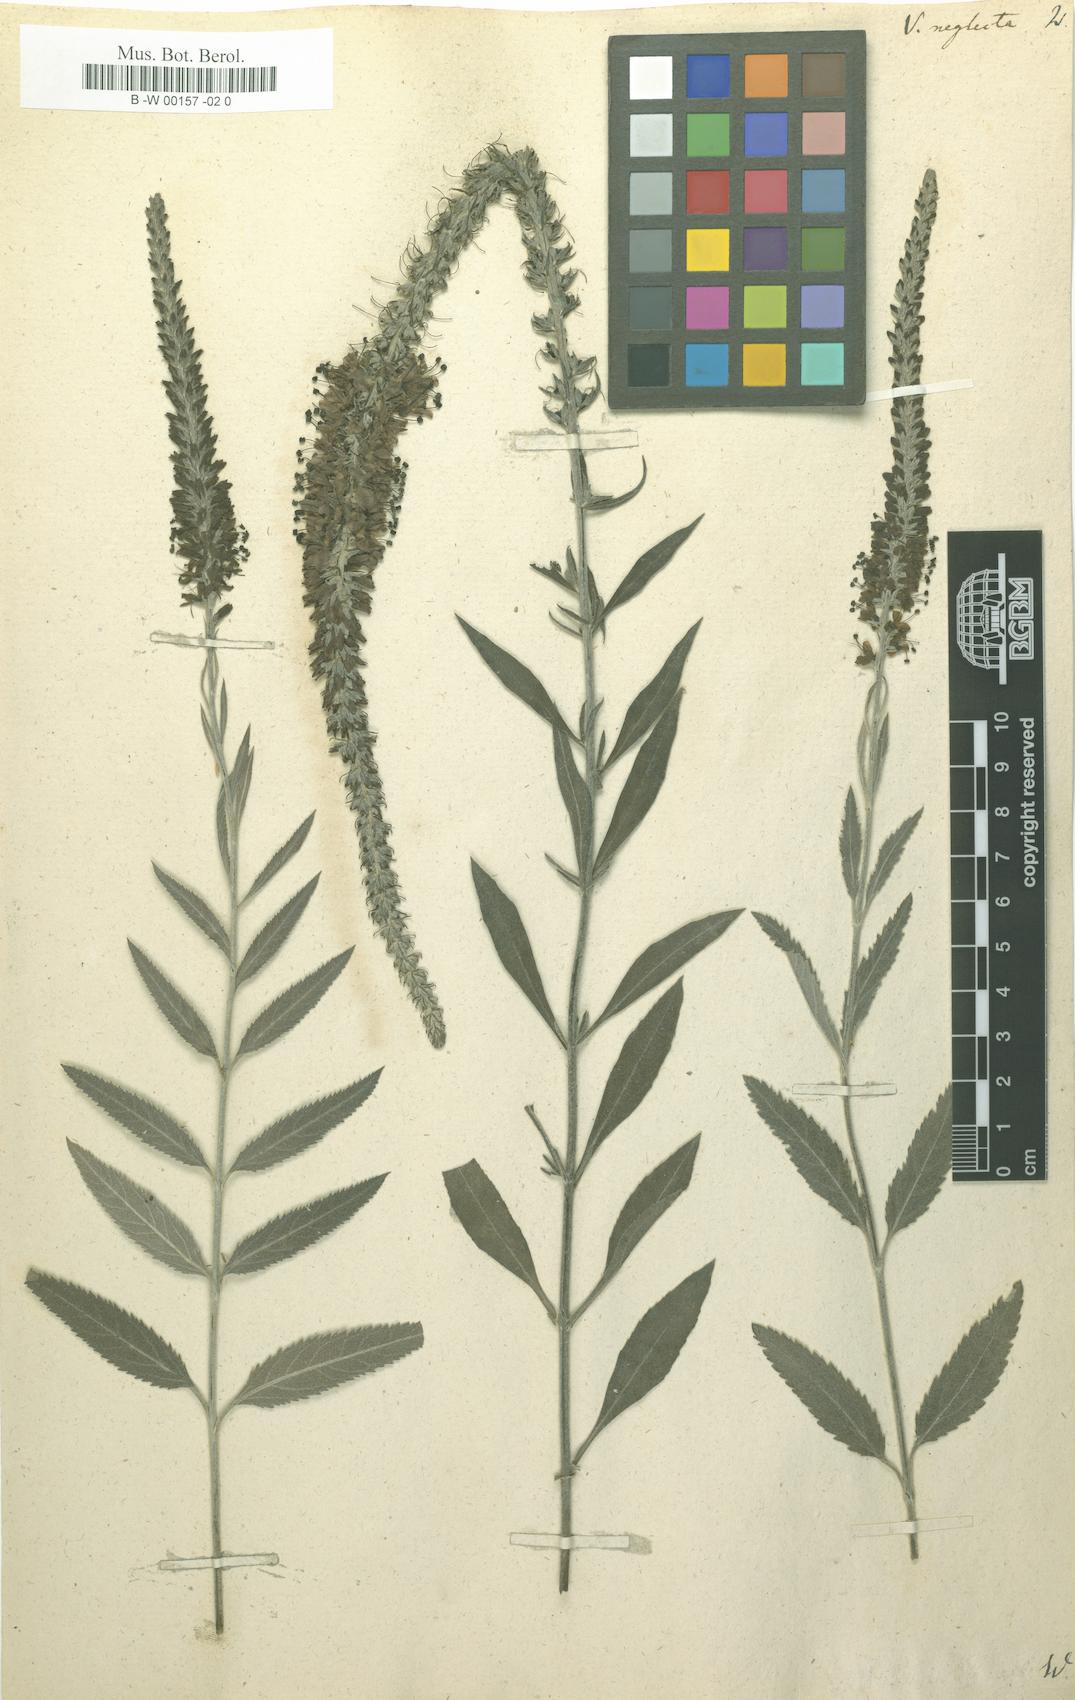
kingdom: Plantae
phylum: Tracheophyta
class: Magnoliopsida
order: Lamiales
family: Plantaginaceae
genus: Veronica
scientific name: Veronica
